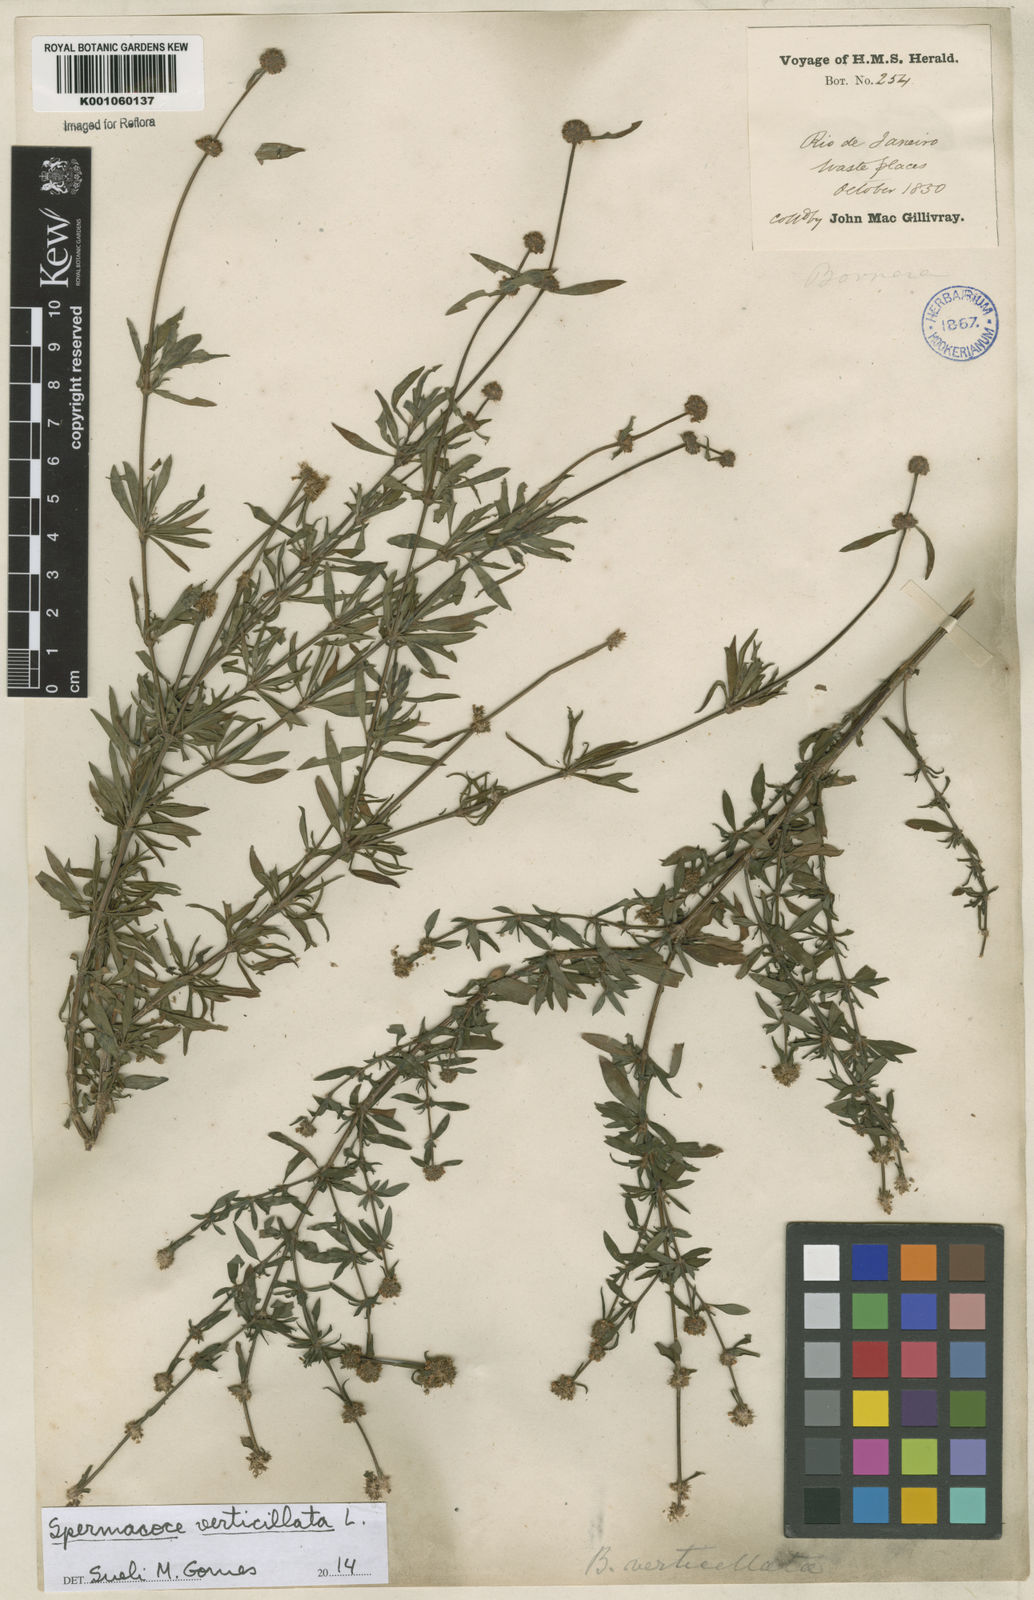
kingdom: Plantae
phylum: Tracheophyta
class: Magnoliopsida
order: Gentianales
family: Rubiaceae
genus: Spermacoce
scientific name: Spermacoce verticillata
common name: Shrubby false buttonweed
